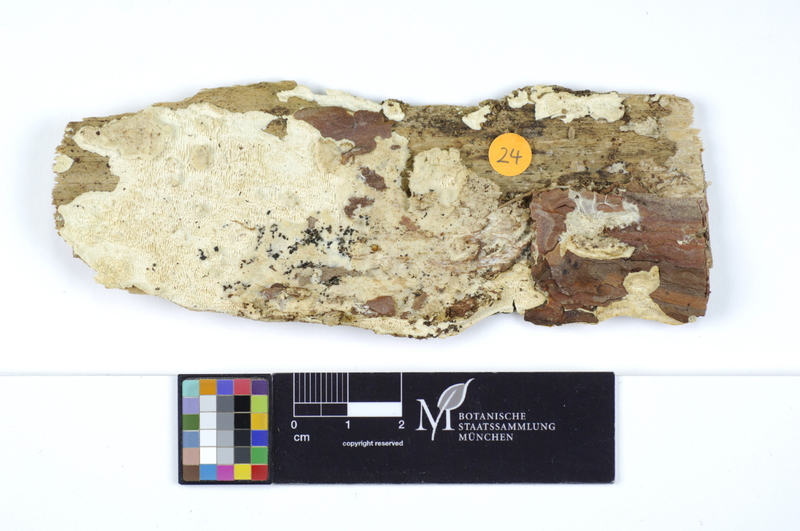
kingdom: Plantae
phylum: Tracheophyta
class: Pinopsida
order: Pinales
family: Pinaceae
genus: Pinus
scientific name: Pinus
